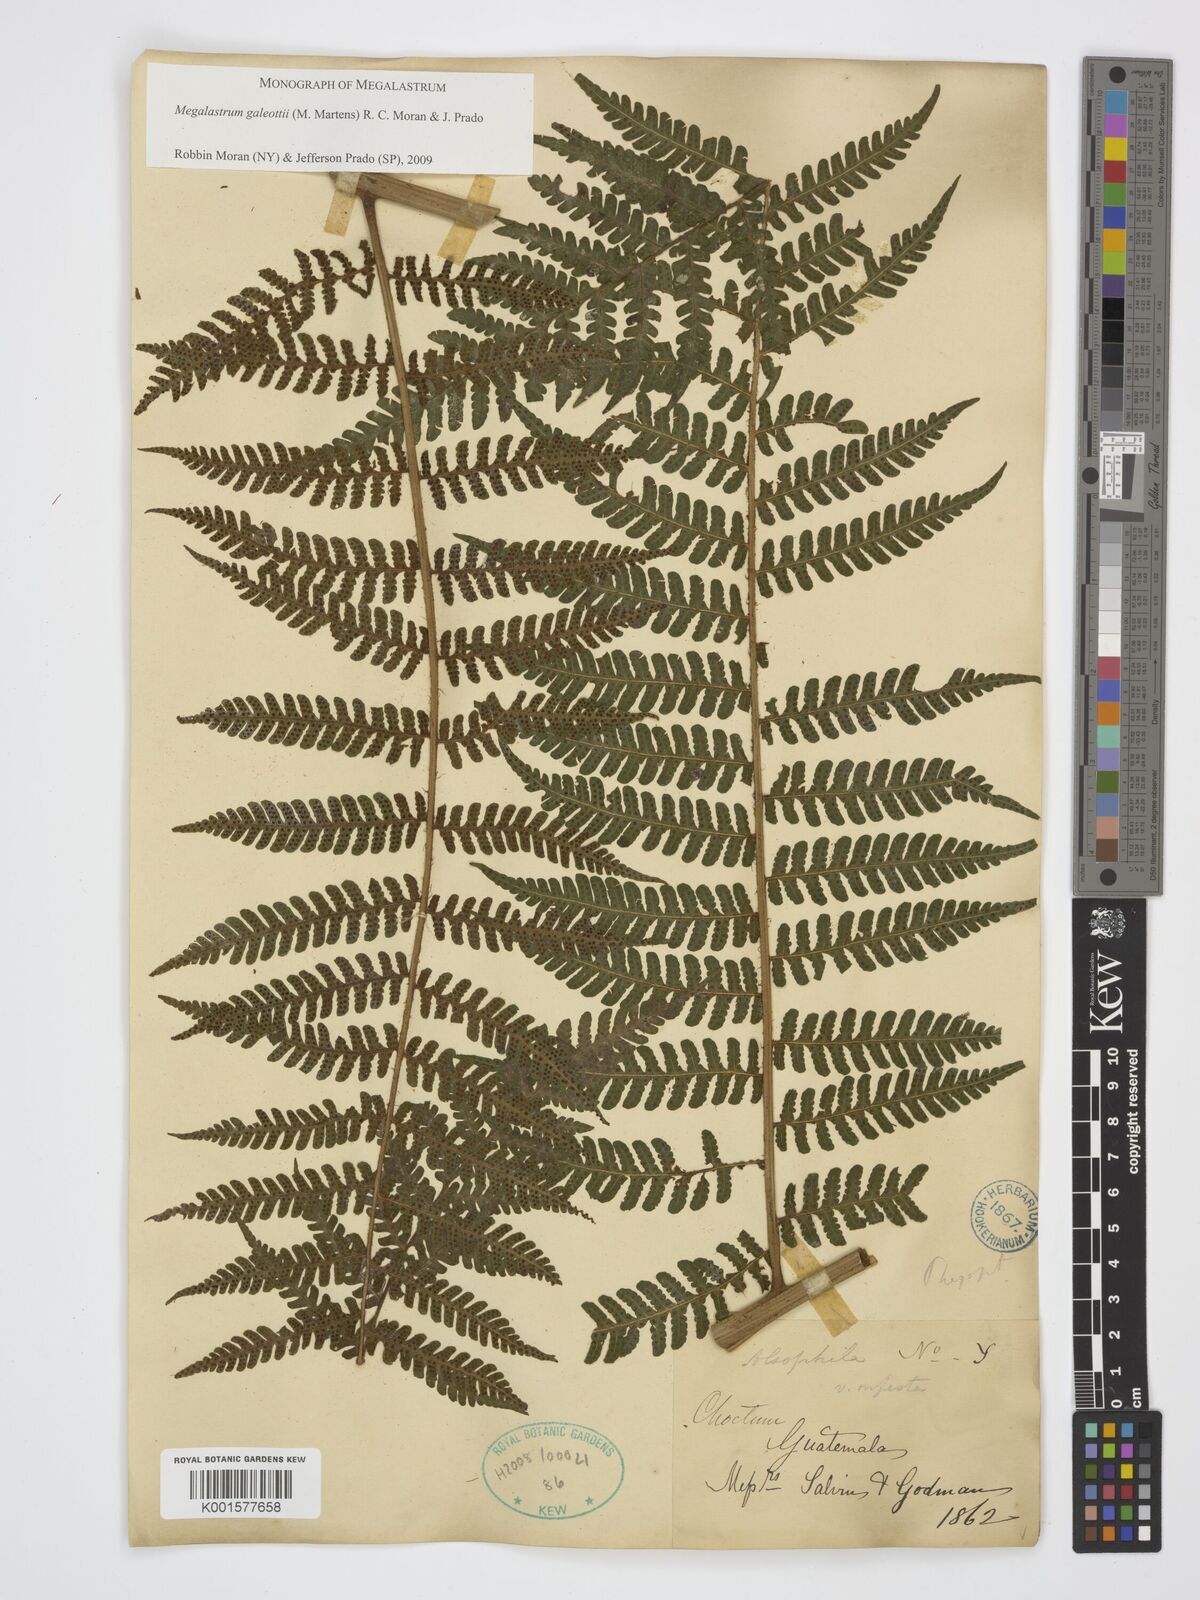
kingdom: Plantae
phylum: Tracheophyta
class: Polypodiopsida
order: Polypodiales
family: Dryopteridaceae
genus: Megalastrum
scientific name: Megalastrum galeottii
